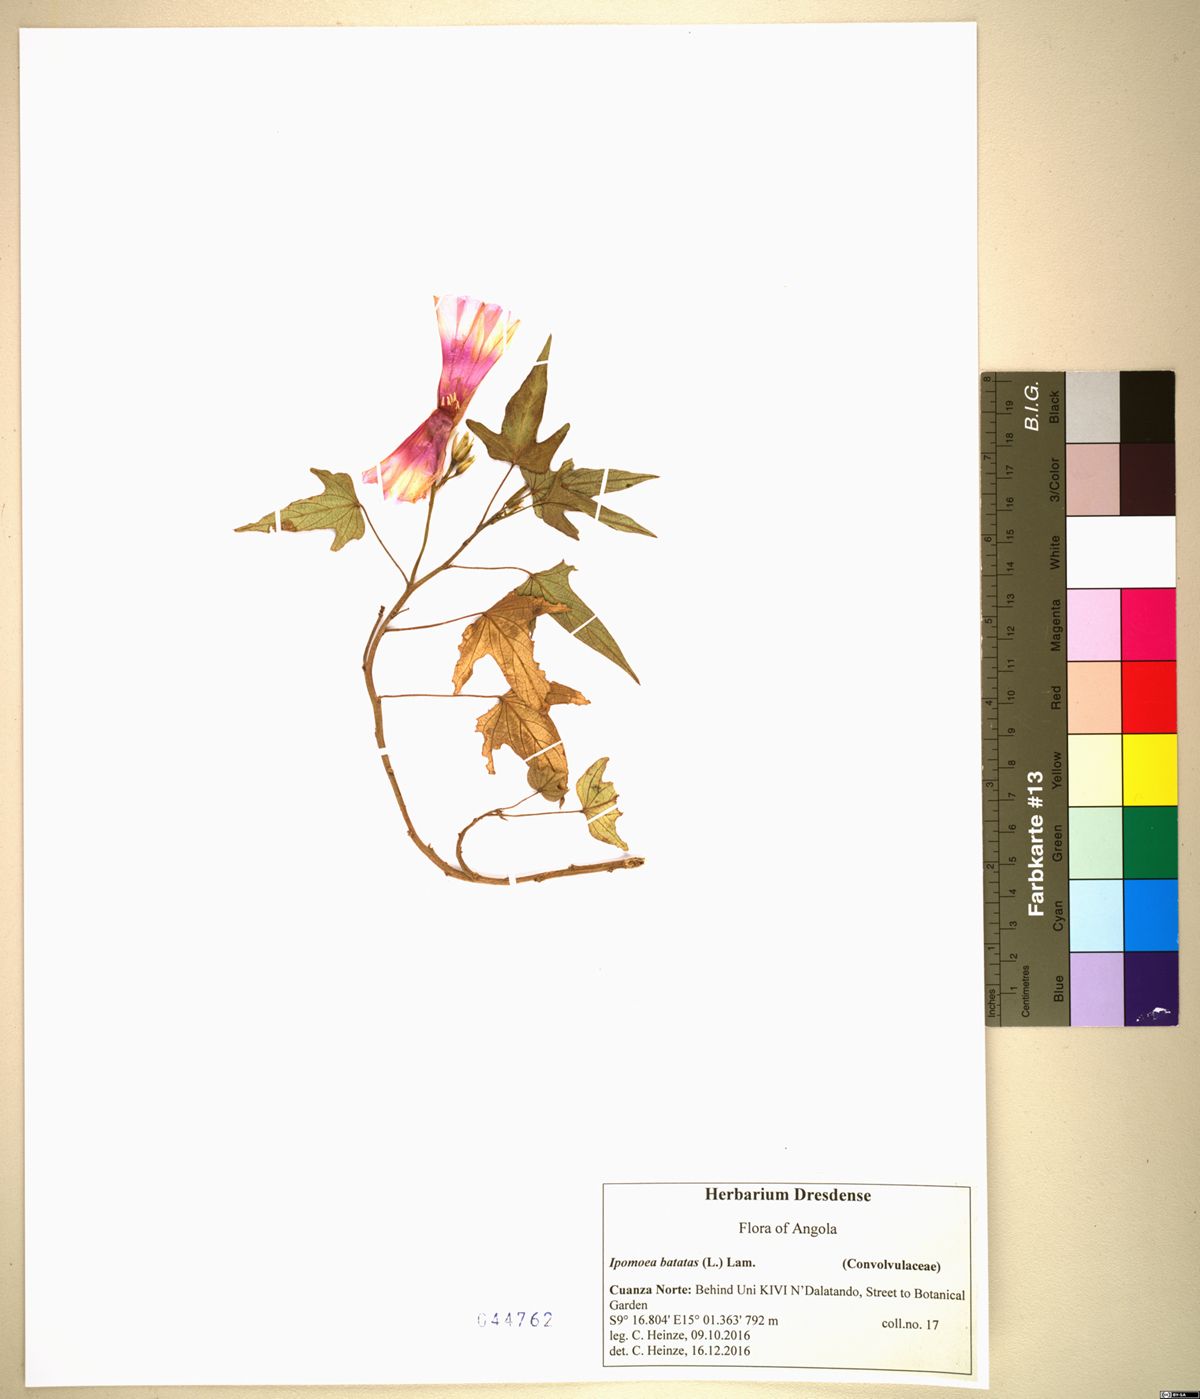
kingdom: Plantae
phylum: Tracheophyta
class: Magnoliopsida
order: Solanales
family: Convolvulaceae
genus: Ipomoea
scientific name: Ipomoea batatas
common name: Sweet-potato
